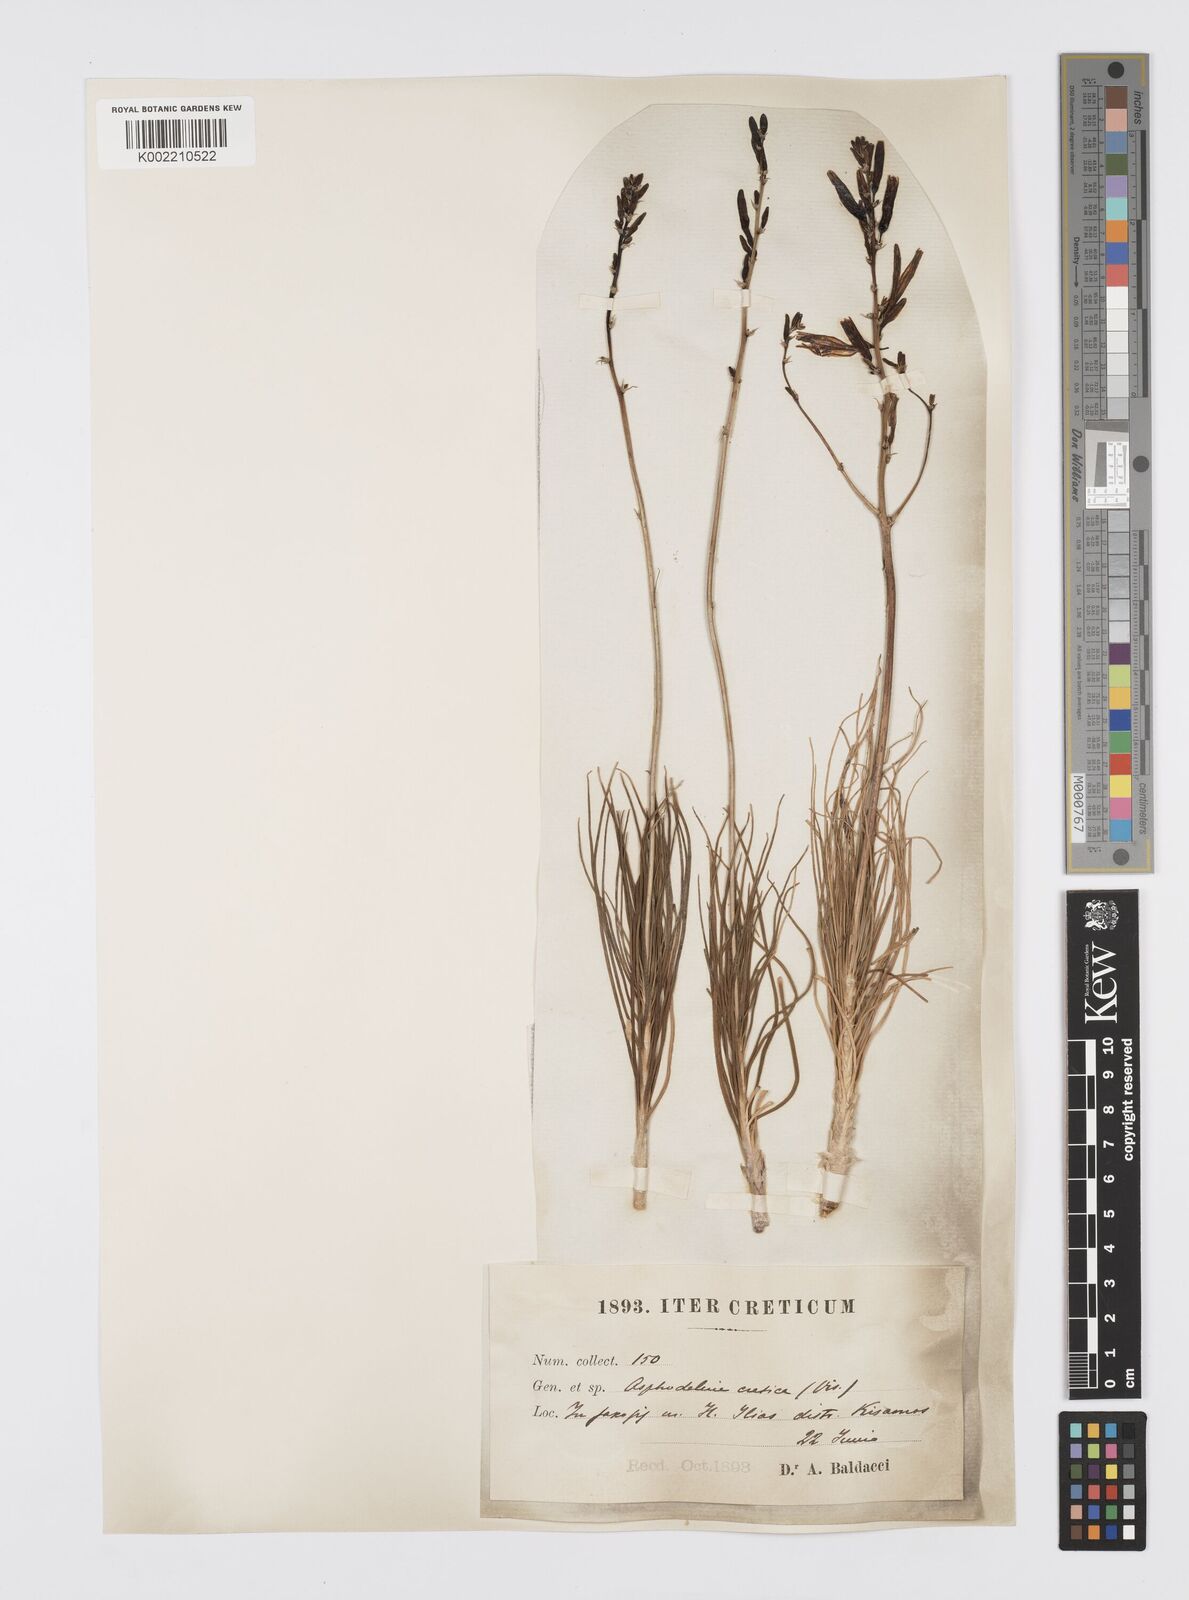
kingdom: Plantae
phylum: Tracheophyta
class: Liliopsida
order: Asparagales
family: Asphodelaceae
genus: Asphodeline
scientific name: Asphodeline liburnica
